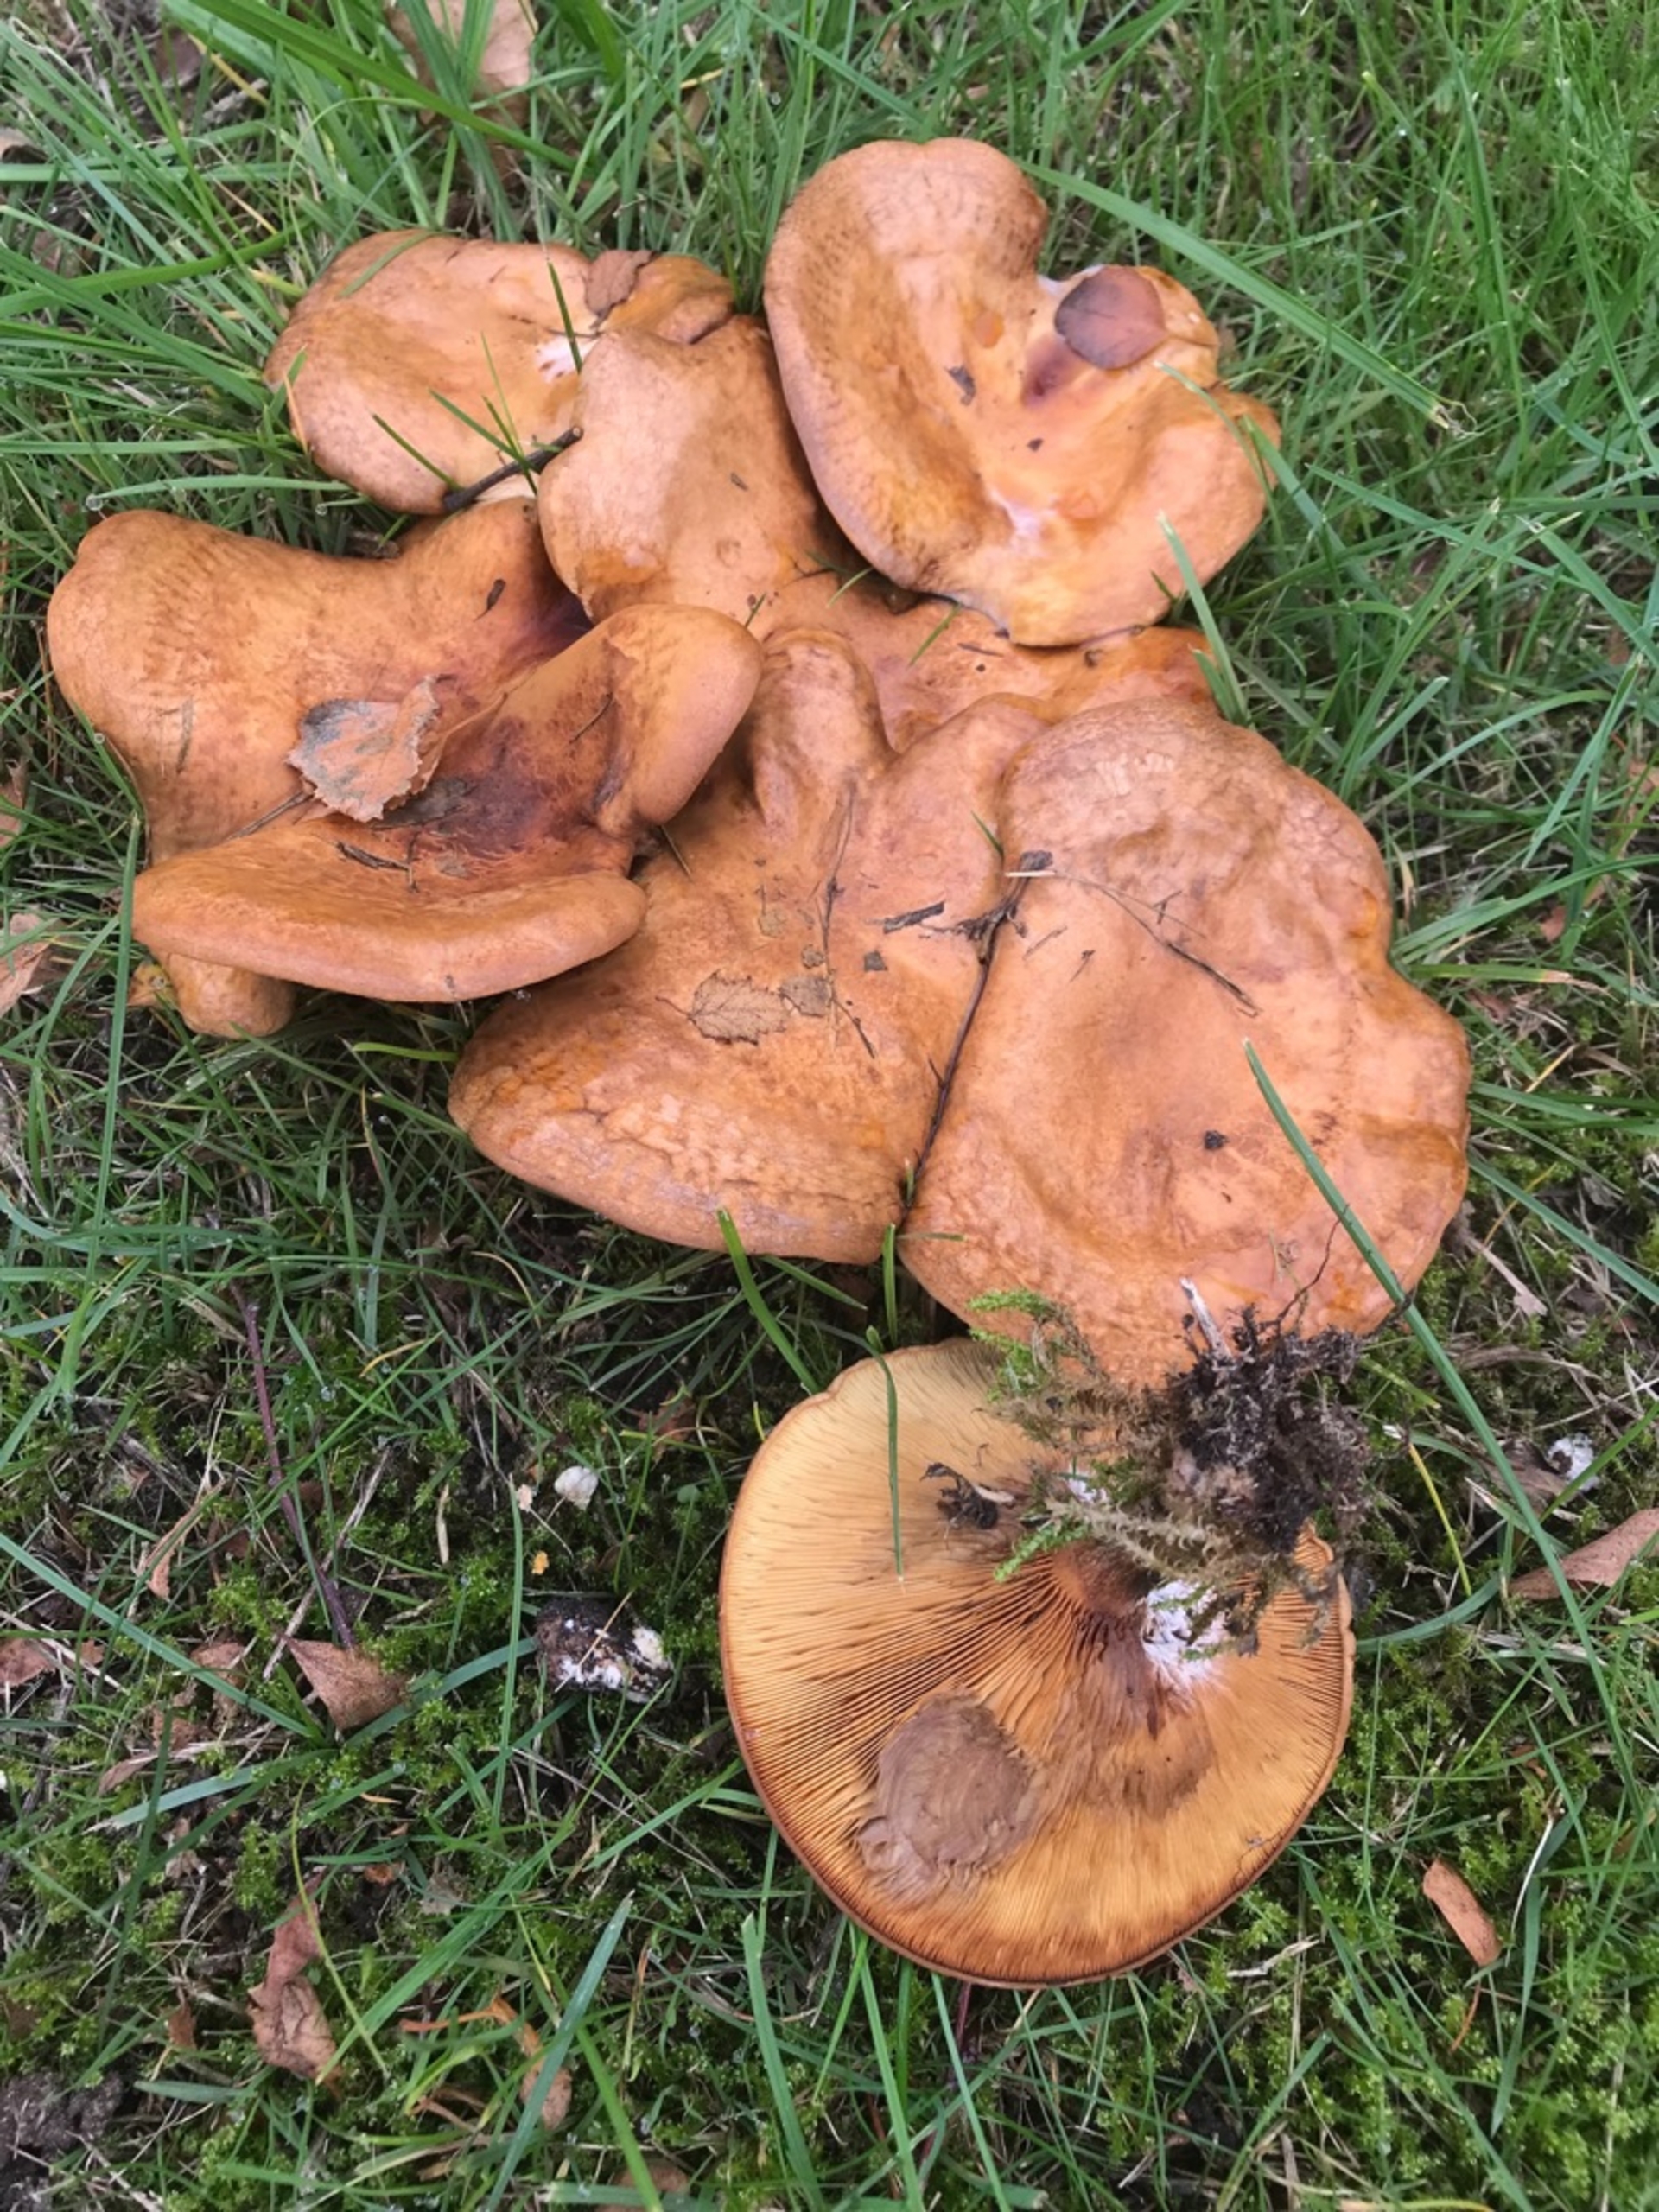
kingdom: Fungi
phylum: Basidiomycota
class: Agaricomycetes
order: Boletales
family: Paxillaceae
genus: Paxillus
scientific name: Paxillus
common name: Netbladhat
